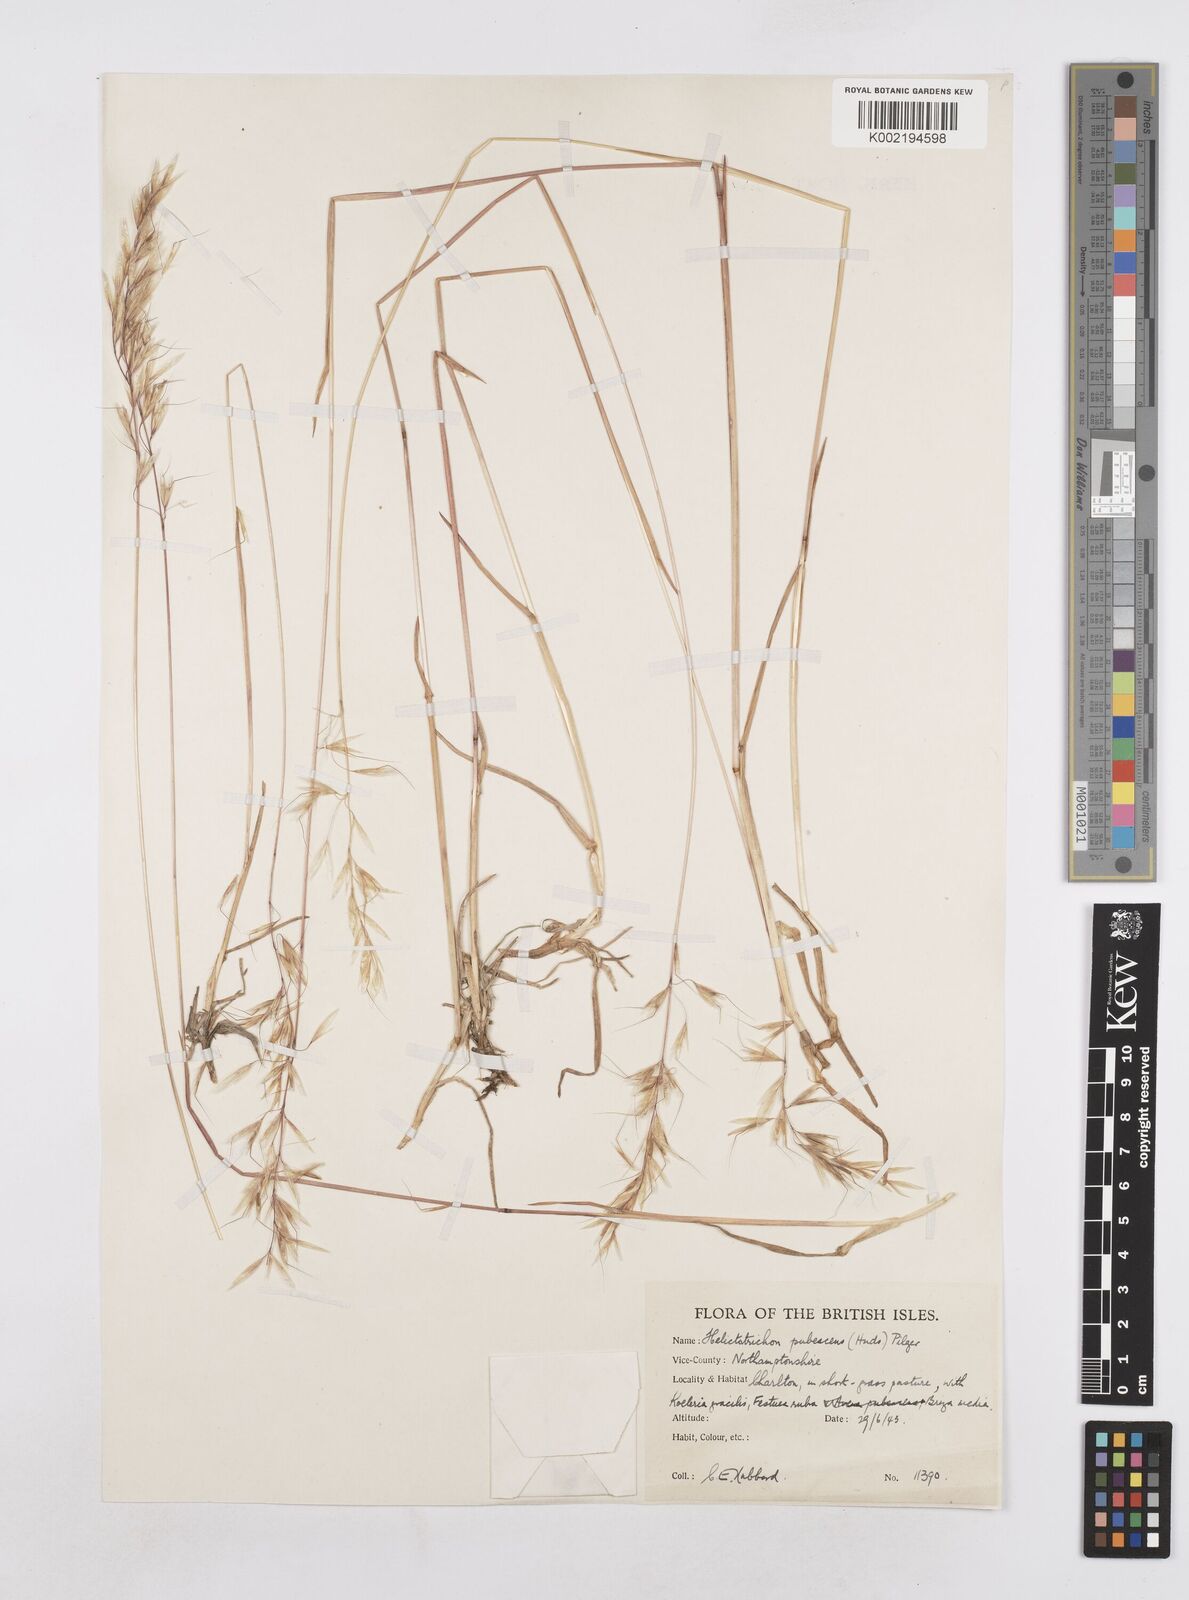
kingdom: Plantae
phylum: Tracheophyta
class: Liliopsida
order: Poales
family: Poaceae
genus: Avenula
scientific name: Avenula pubescens
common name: Downy alpine oatgrass
